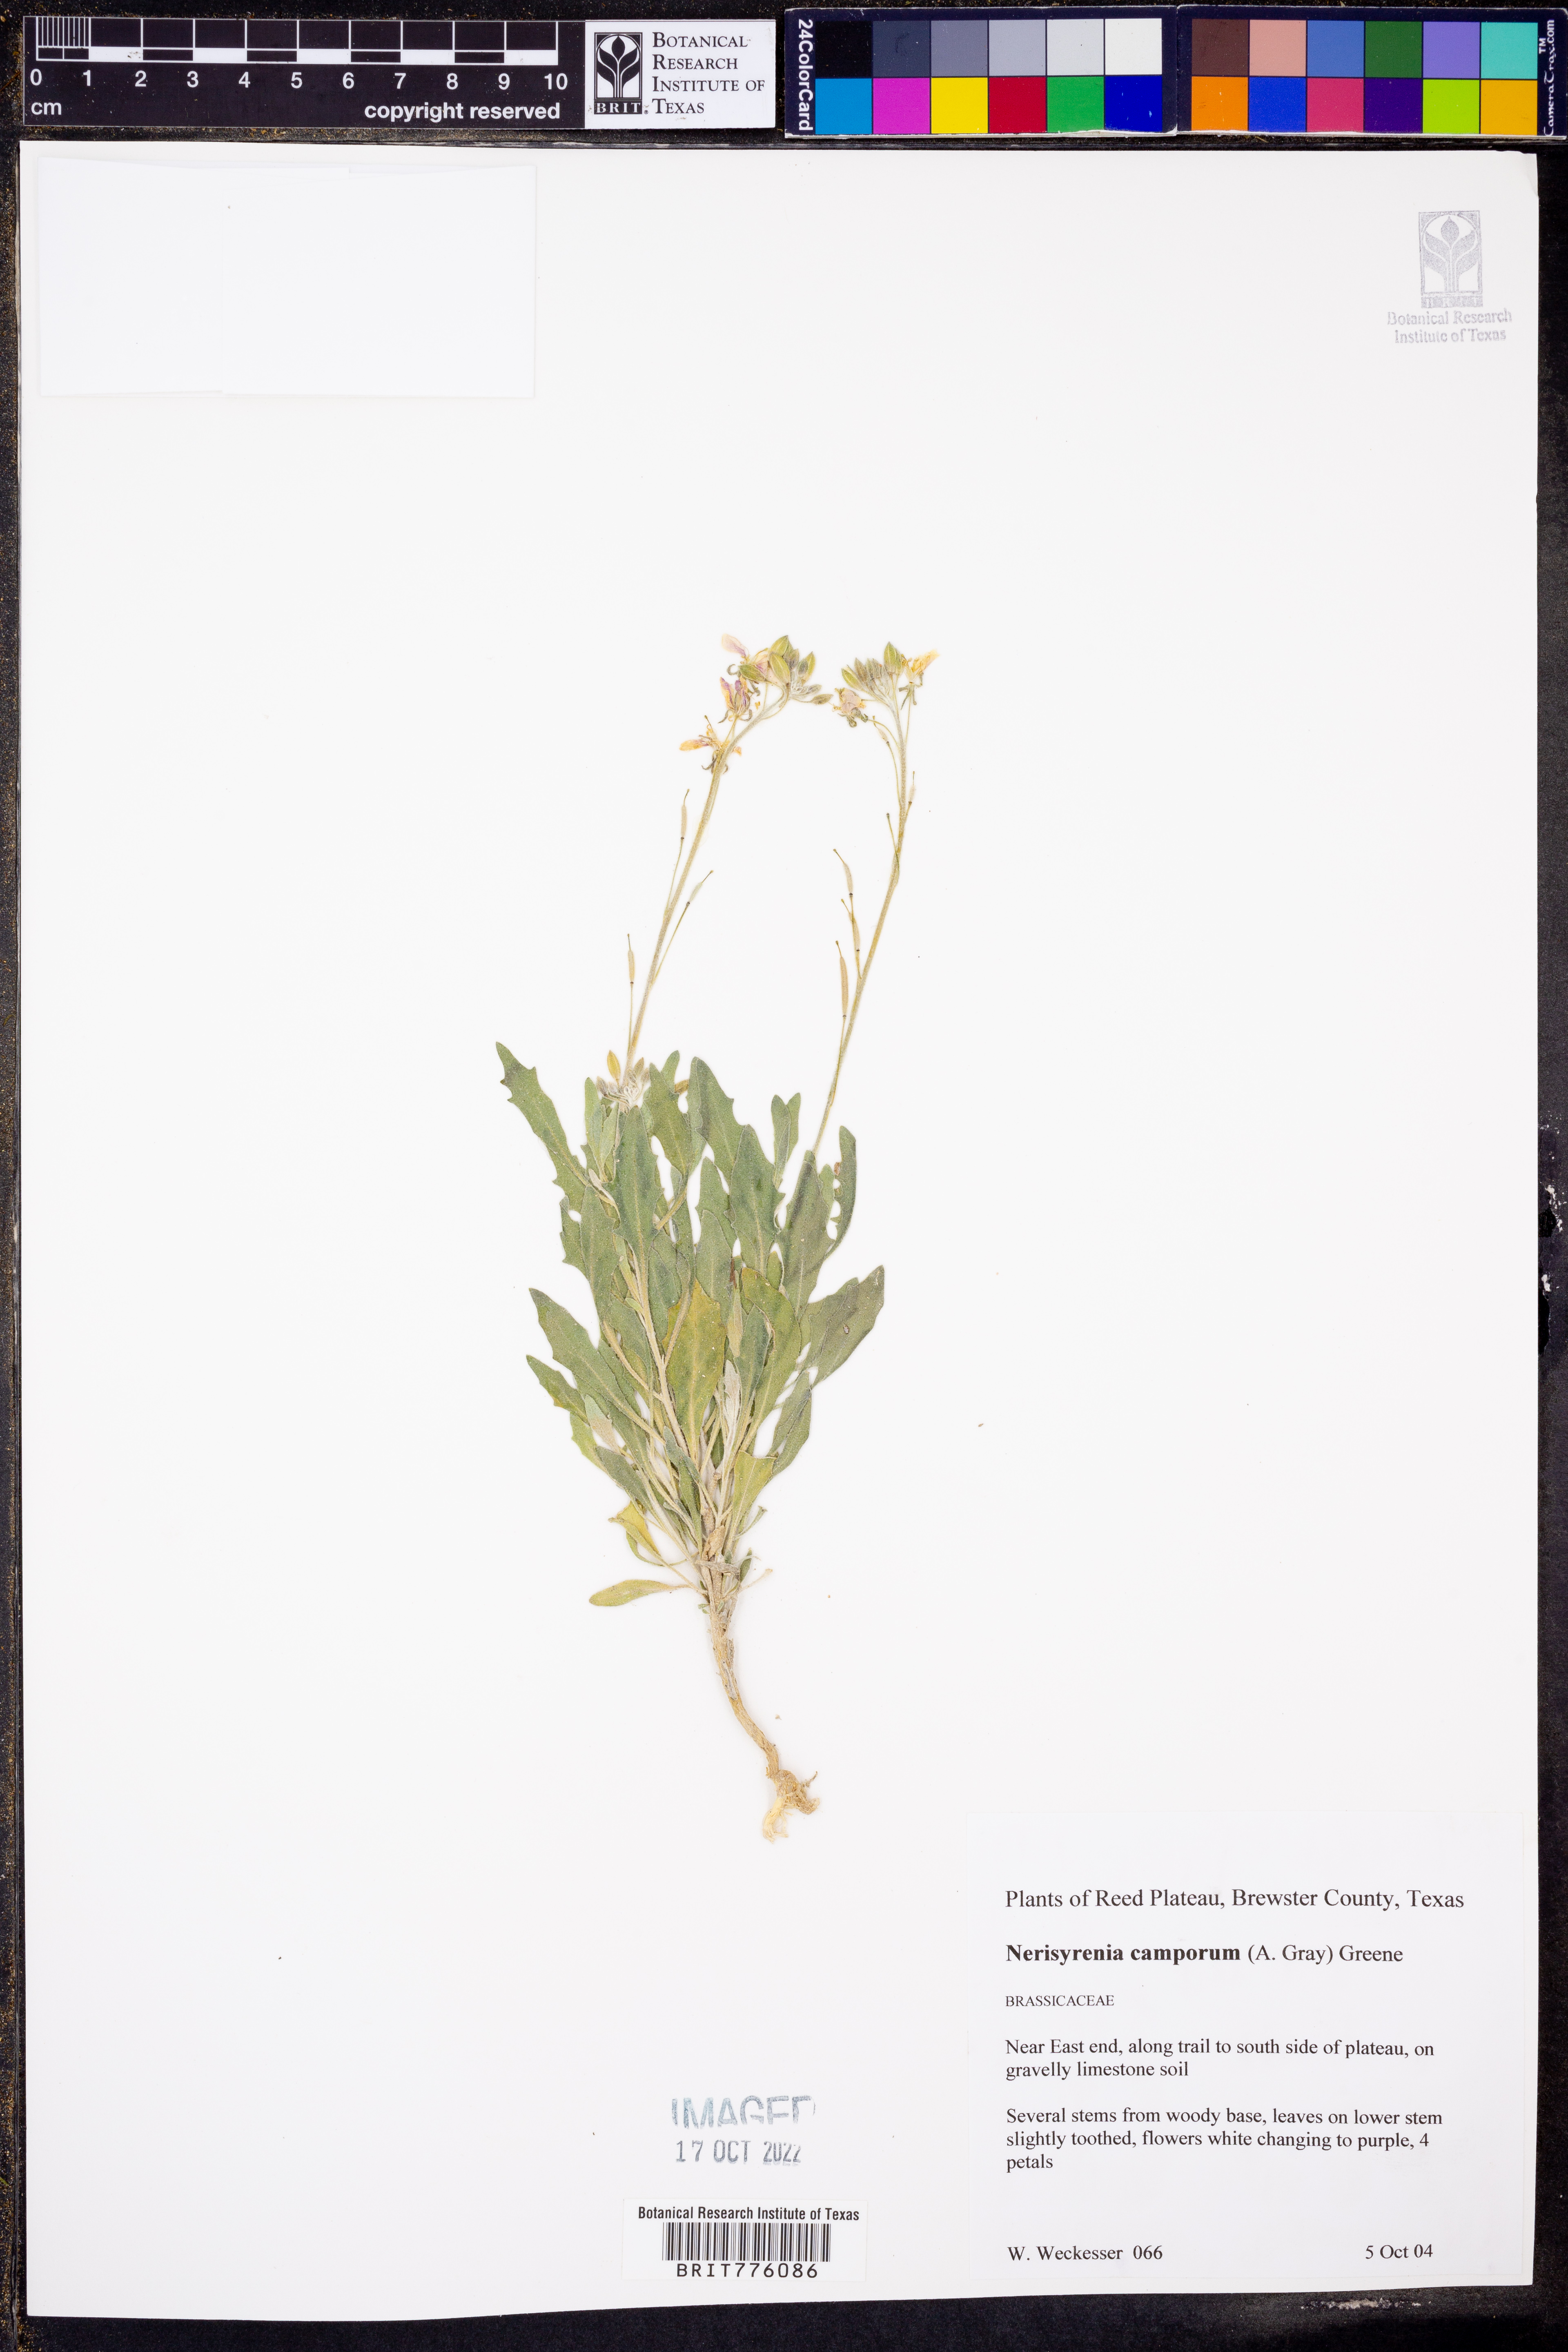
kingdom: Plantae
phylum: Tracheophyta
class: Magnoliopsida
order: Brassicales
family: Brassicaceae
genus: Nerisyrenia
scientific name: Nerisyrenia camporum
